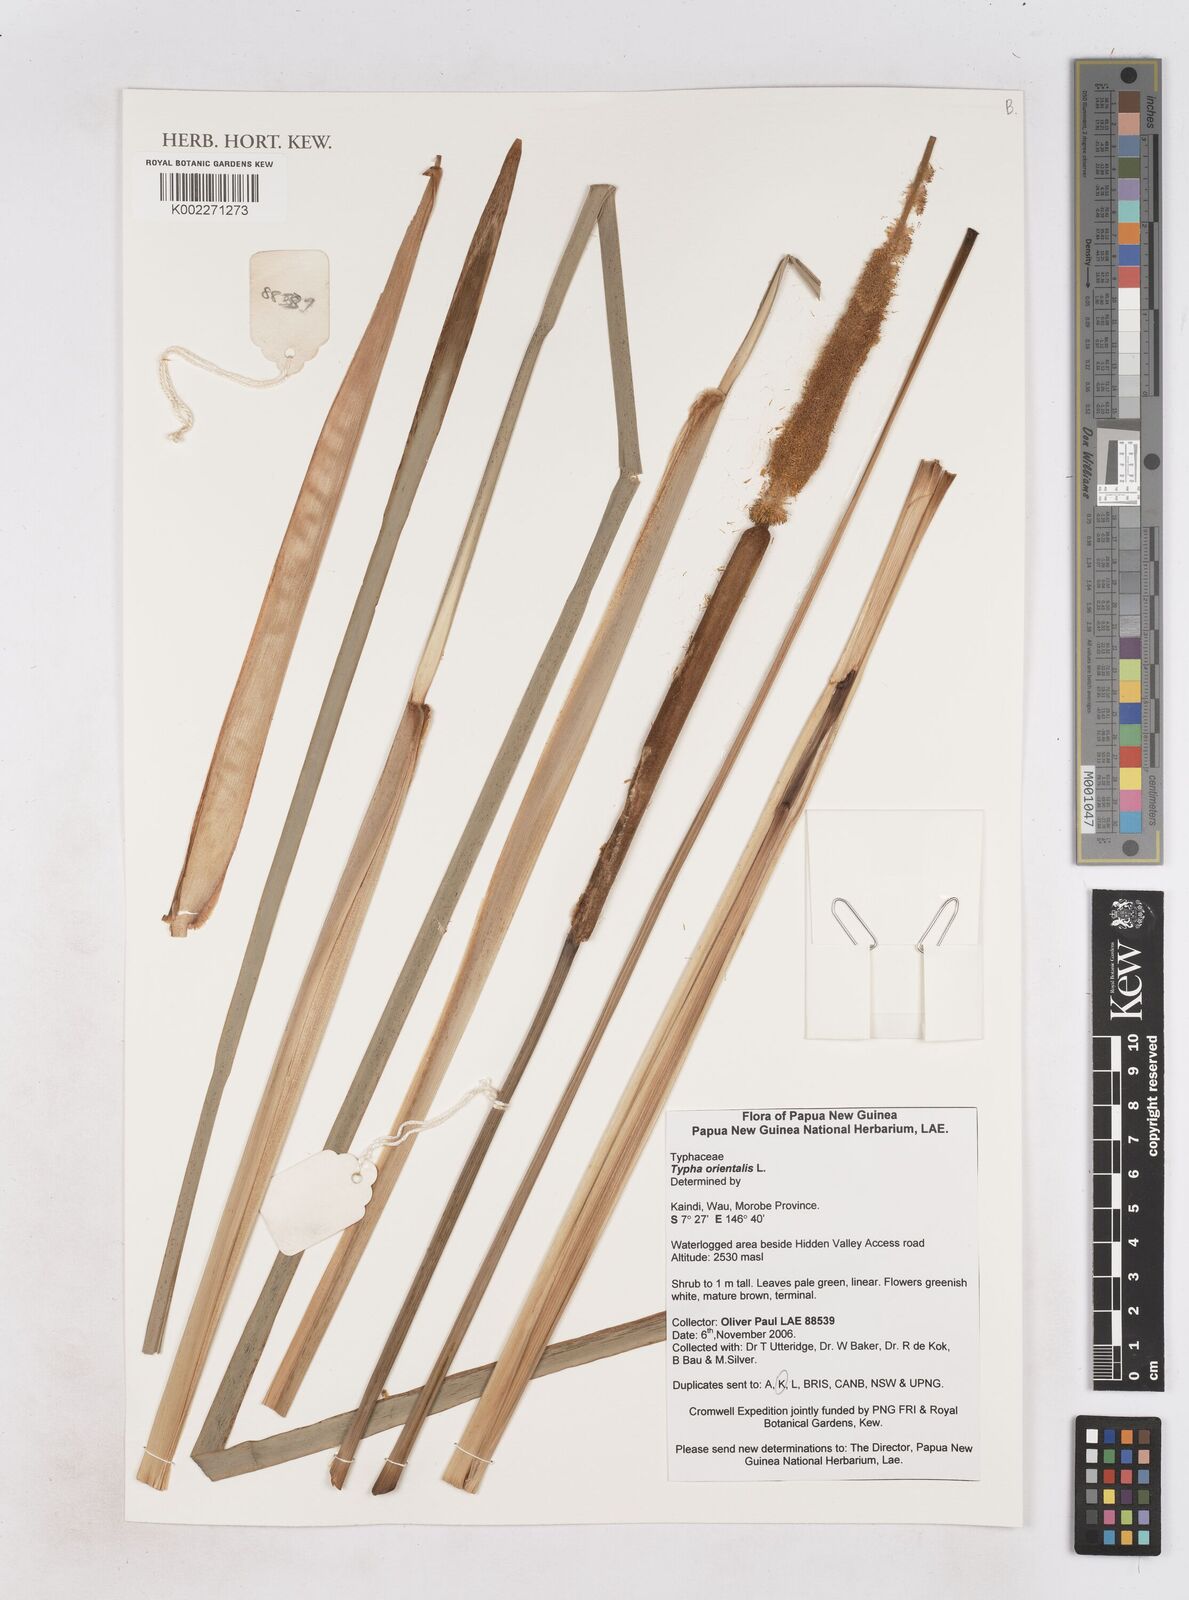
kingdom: Plantae
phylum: Tracheophyta
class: Liliopsida
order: Poales
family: Typhaceae
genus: Typha
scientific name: Typha orientalis
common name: Bullrush
